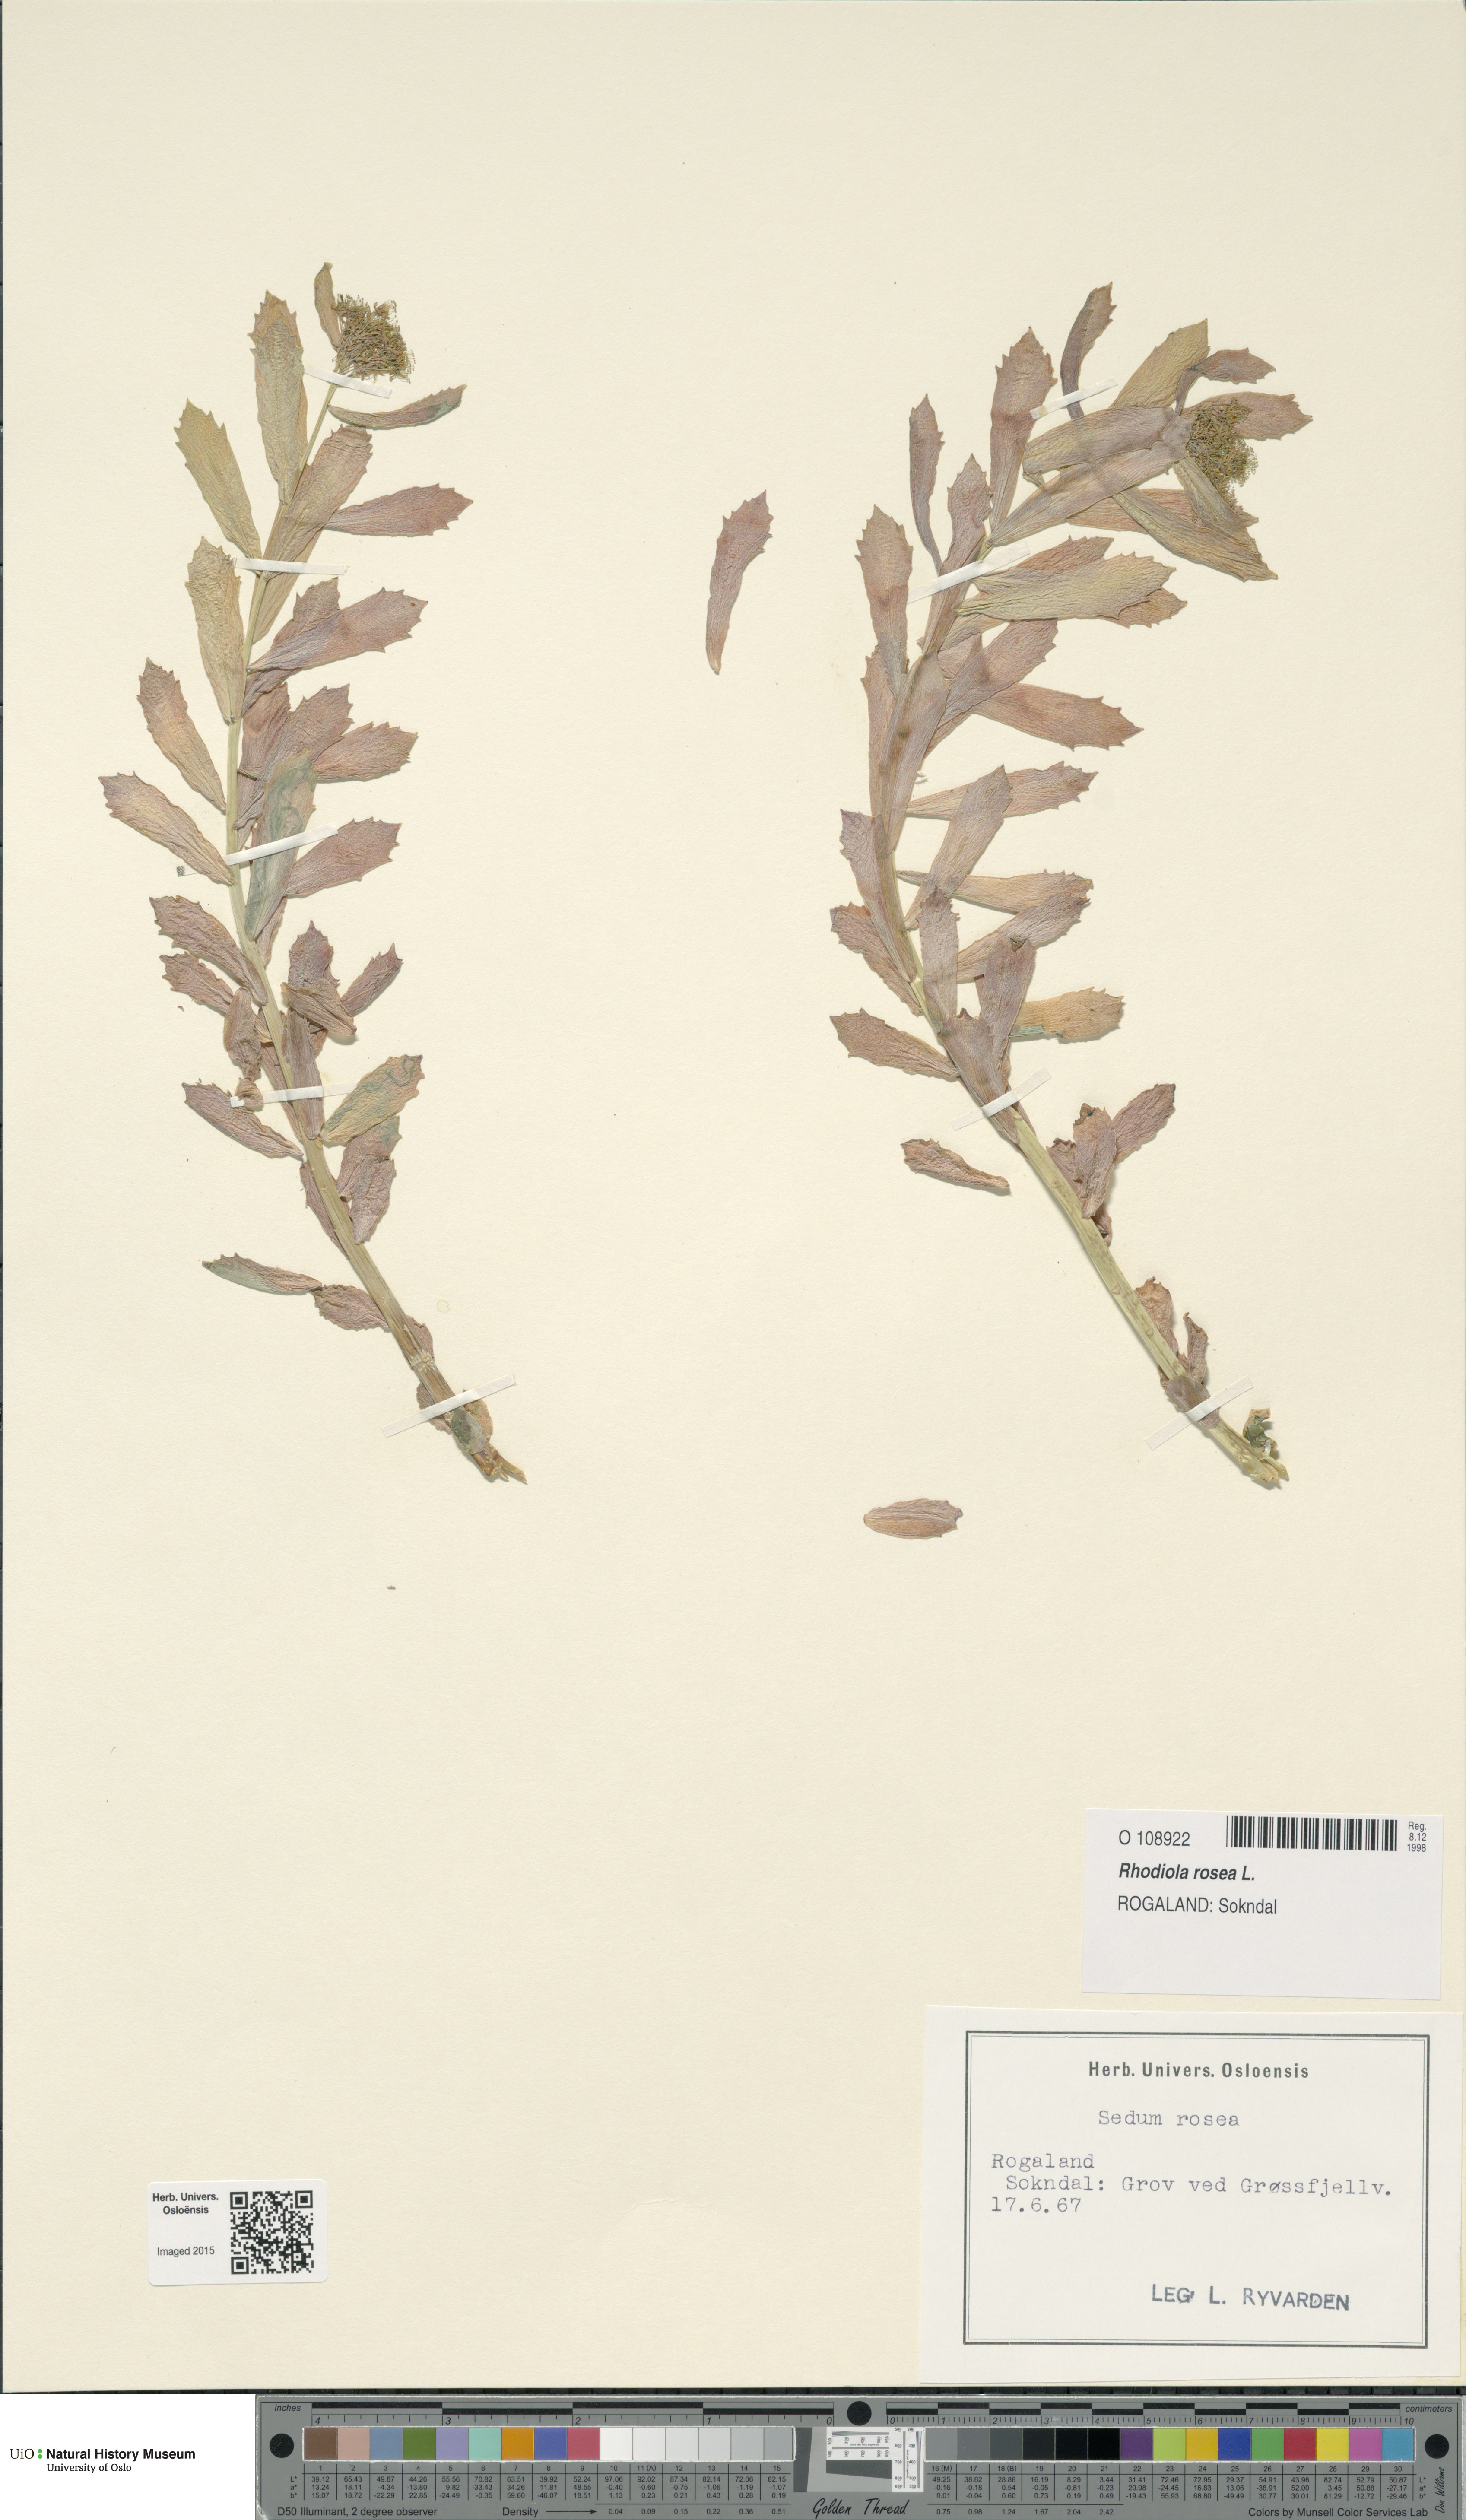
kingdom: Plantae
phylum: Tracheophyta
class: Magnoliopsida
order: Saxifragales
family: Crassulaceae
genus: Rhodiola
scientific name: Rhodiola rosea
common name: Roseroot
